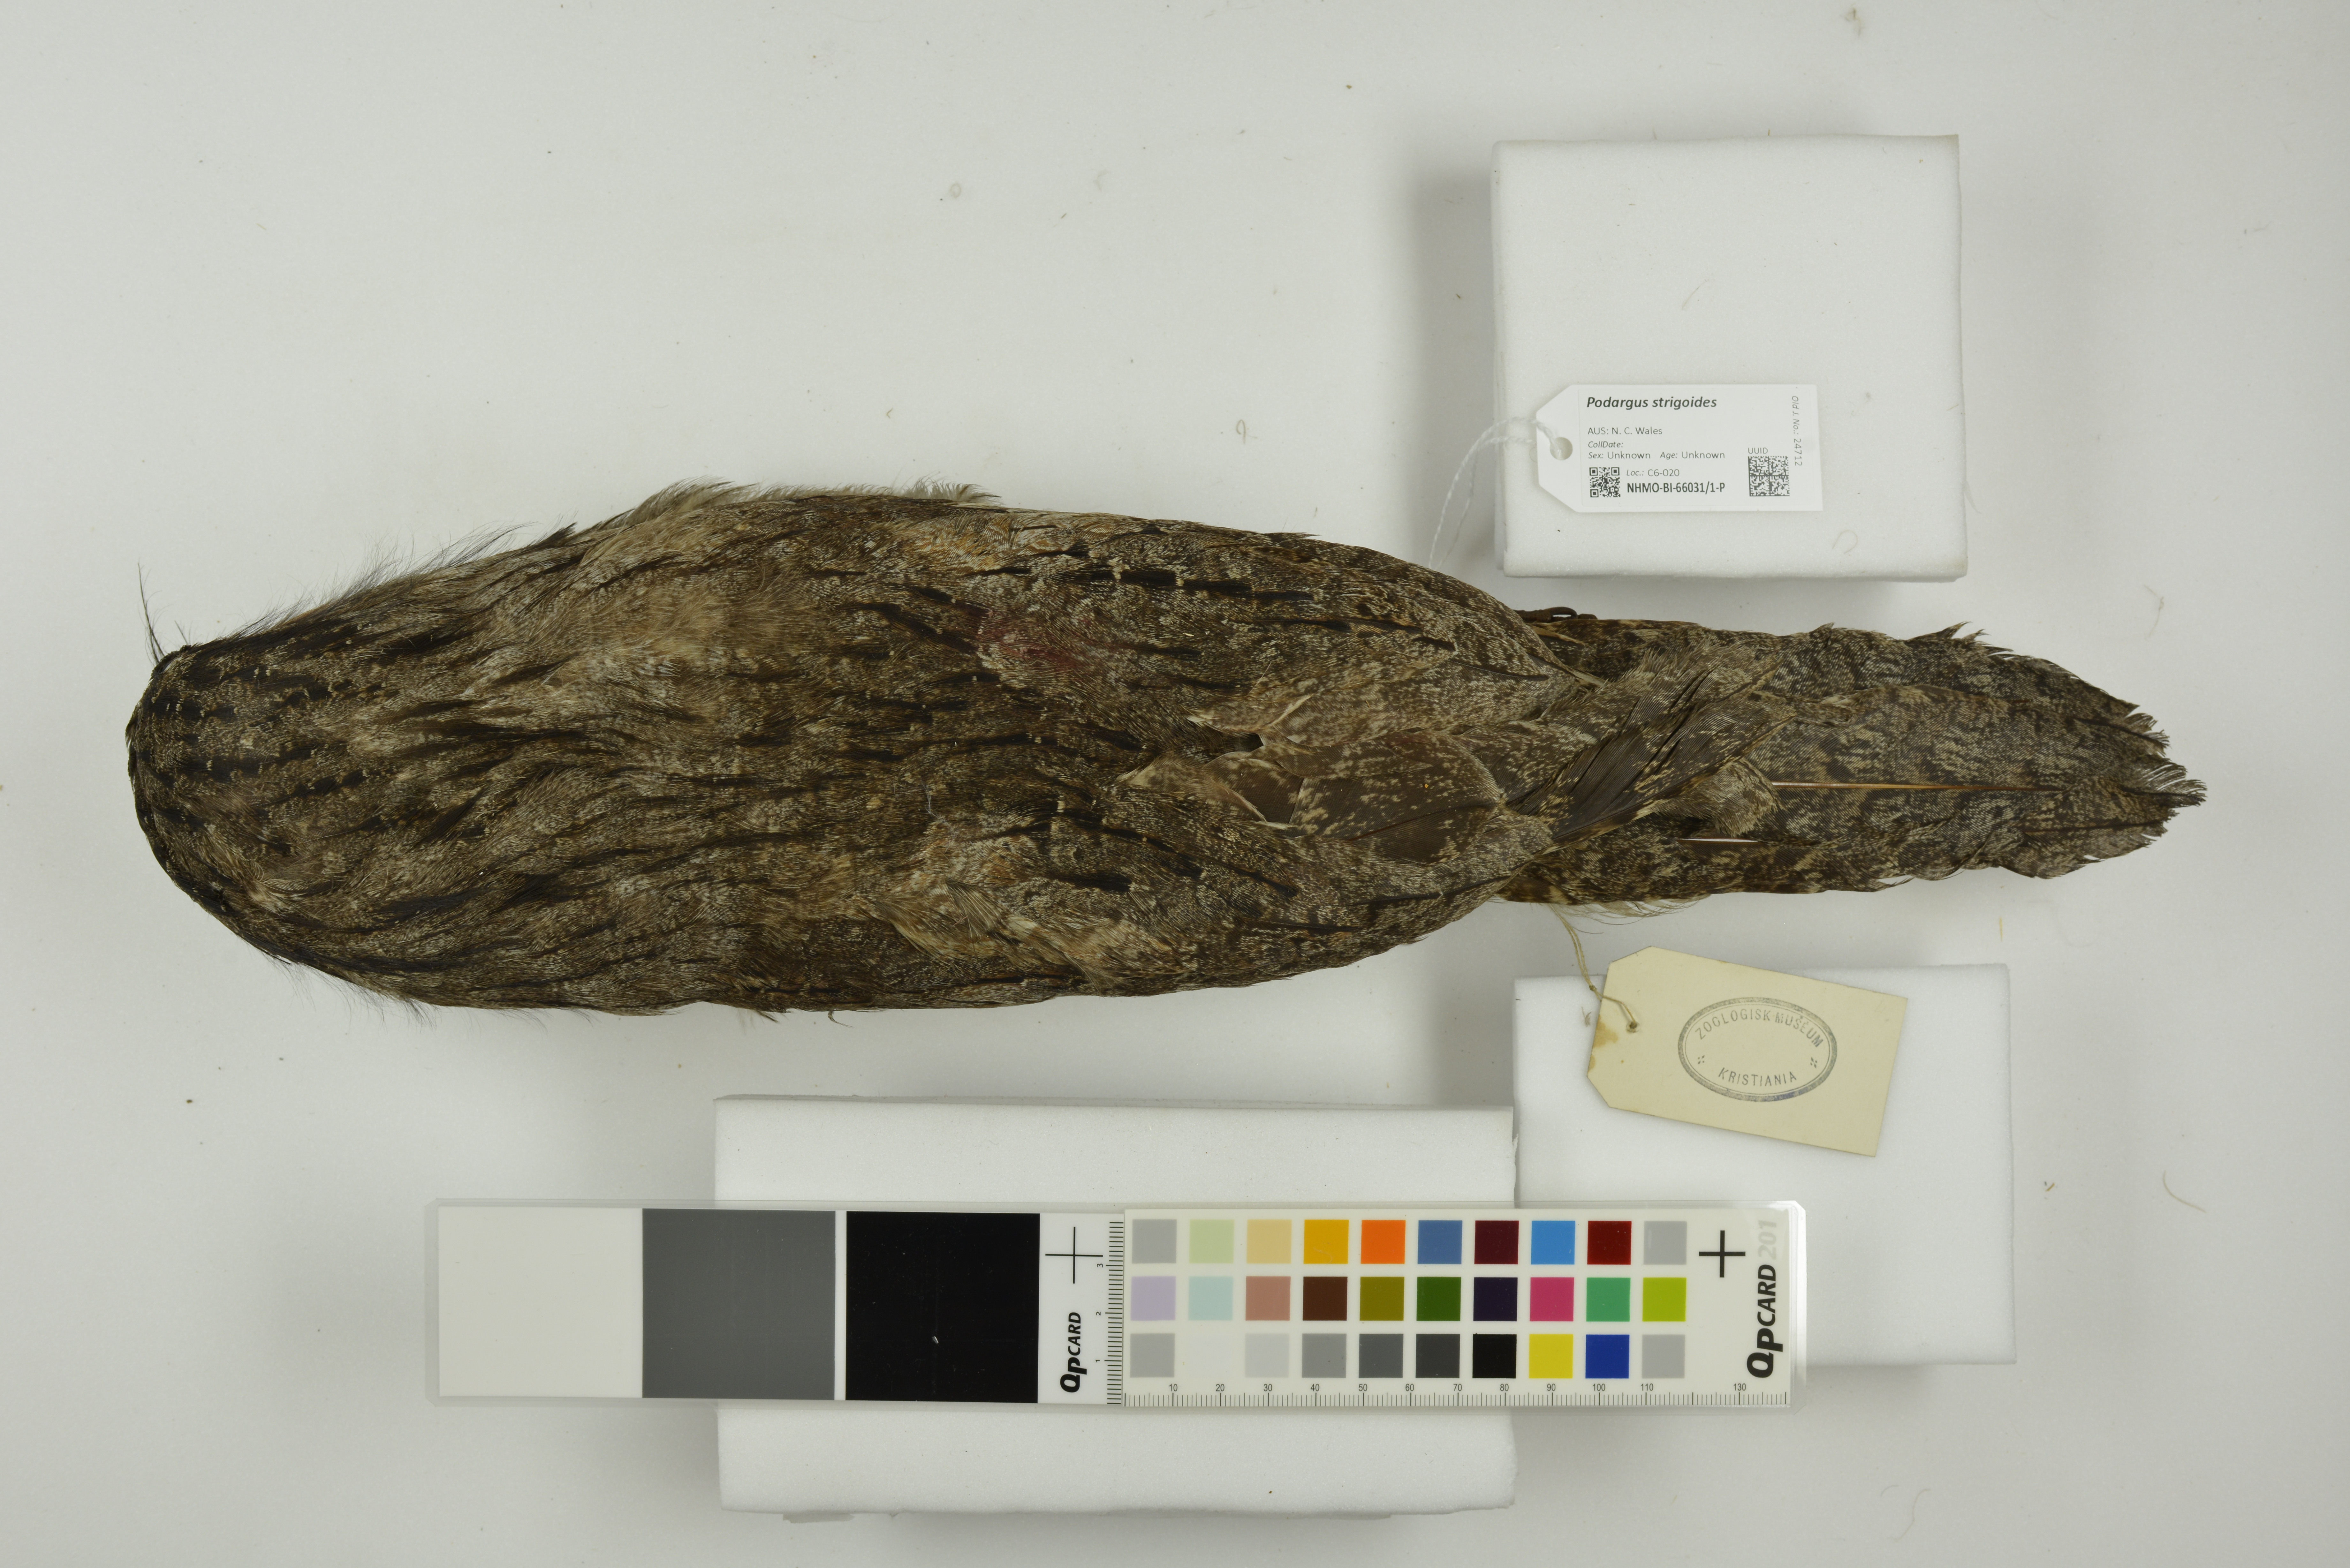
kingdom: Animalia
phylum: Chordata
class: Aves
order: Caprimulgiformes
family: Podargidae
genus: Podargus
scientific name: Podargus strigoides
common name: Tawny frogmouth
